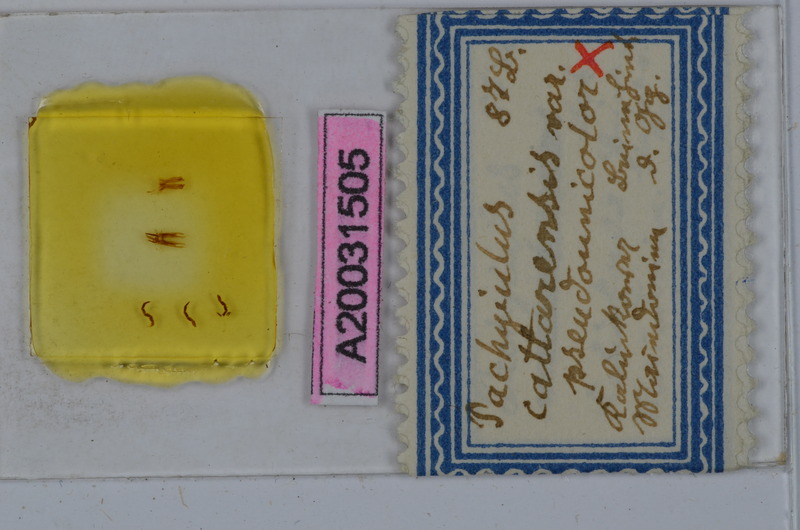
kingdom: Animalia
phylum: Arthropoda
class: Diplopoda
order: Julida
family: Julidae
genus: Pachyiulus
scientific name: Pachyiulus cattarensis
